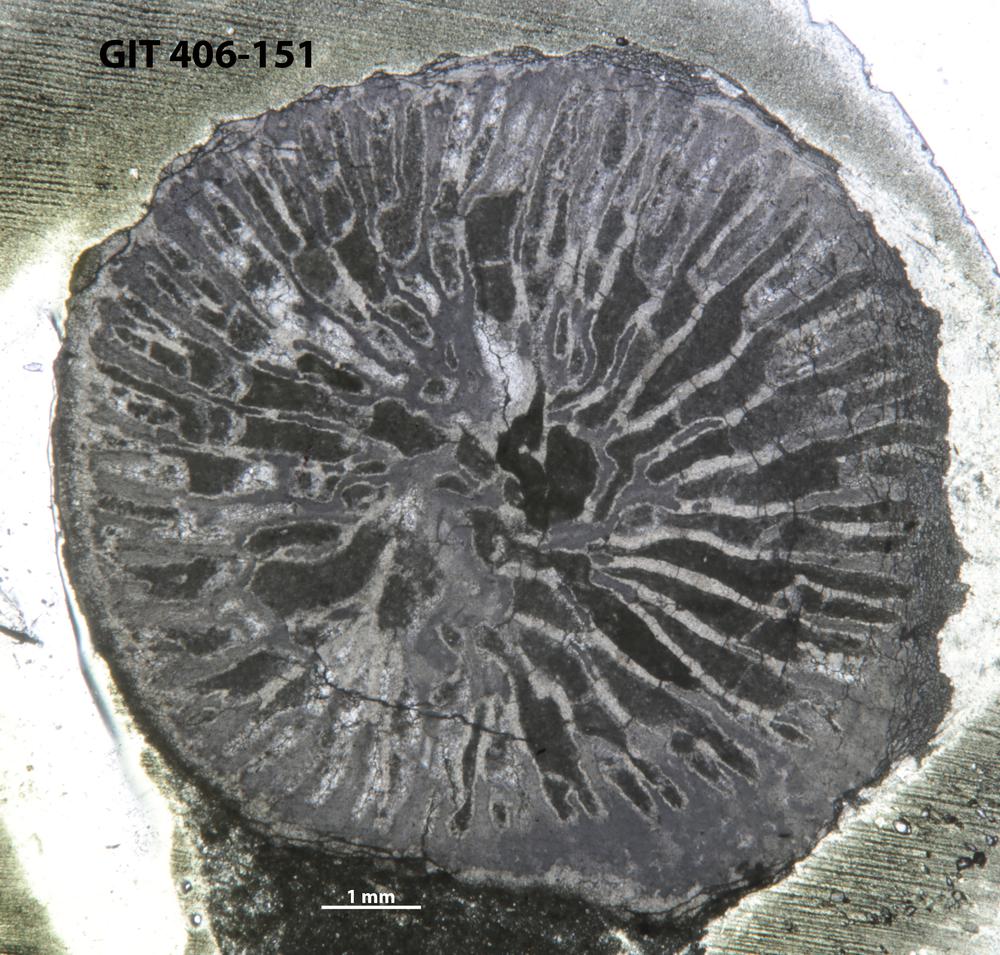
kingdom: Animalia
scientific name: Animalia
